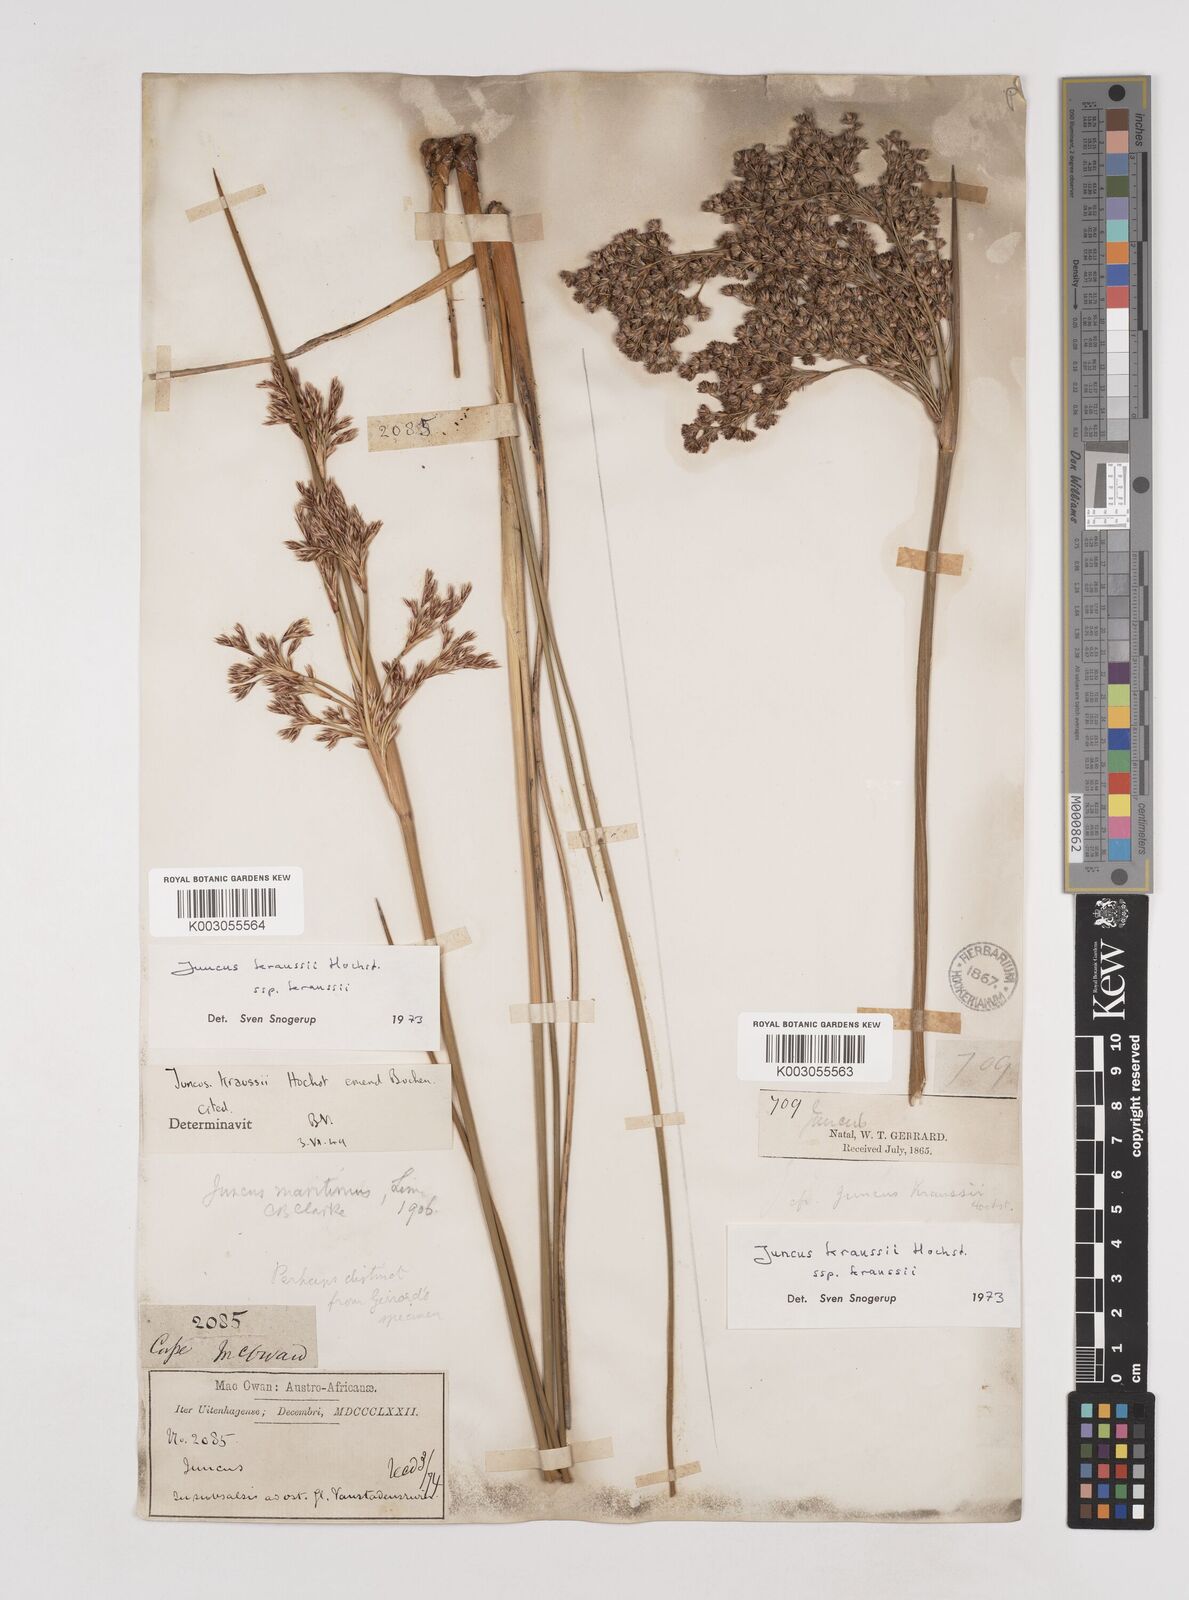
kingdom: Plantae
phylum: Tracheophyta
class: Liliopsida
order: Poales
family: Juncaceae
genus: Juncus
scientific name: Juncus kraussii
